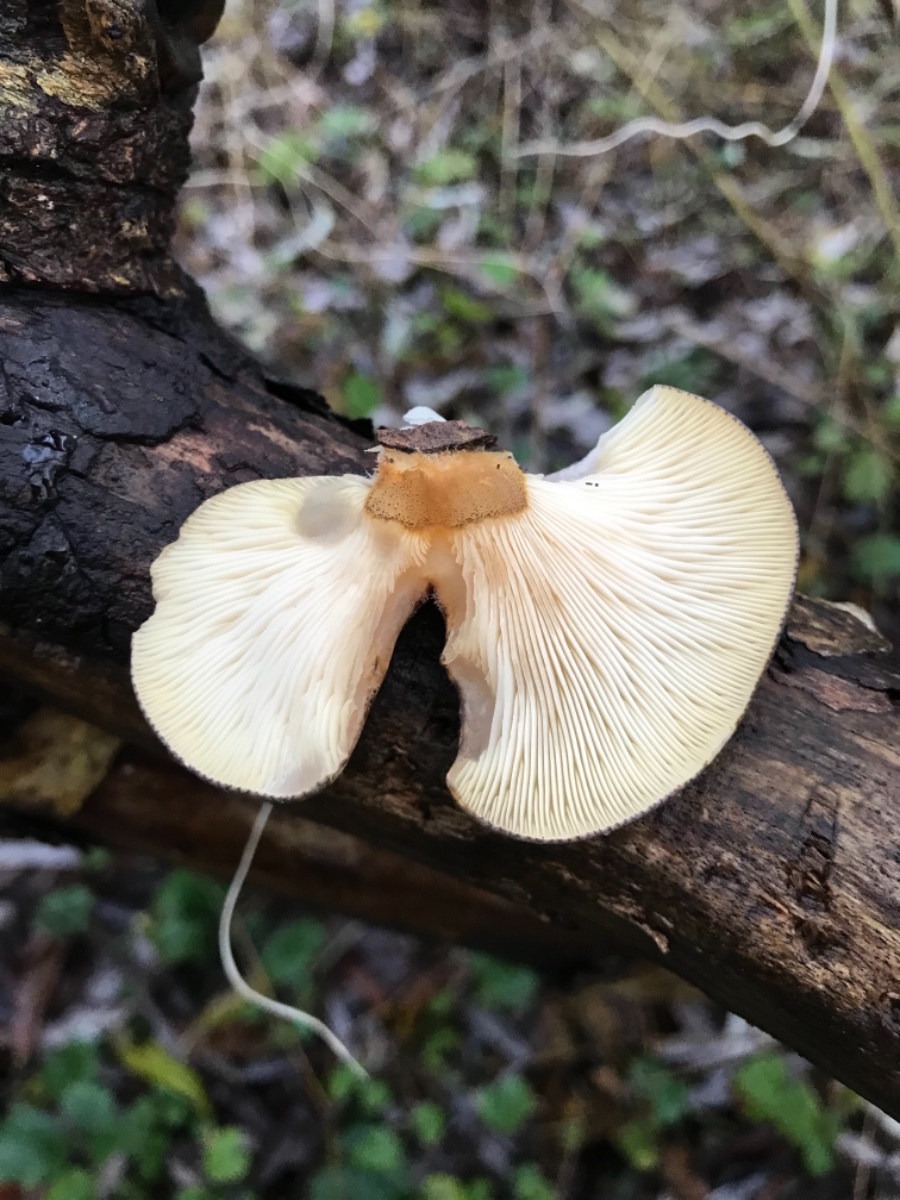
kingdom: Fungi
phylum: Basidiomycota
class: Agaricomycetes
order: Agaricales
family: Sarcomyxaceae
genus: Sarcomyxa
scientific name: Sarcomyxa serotina
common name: gummihat
